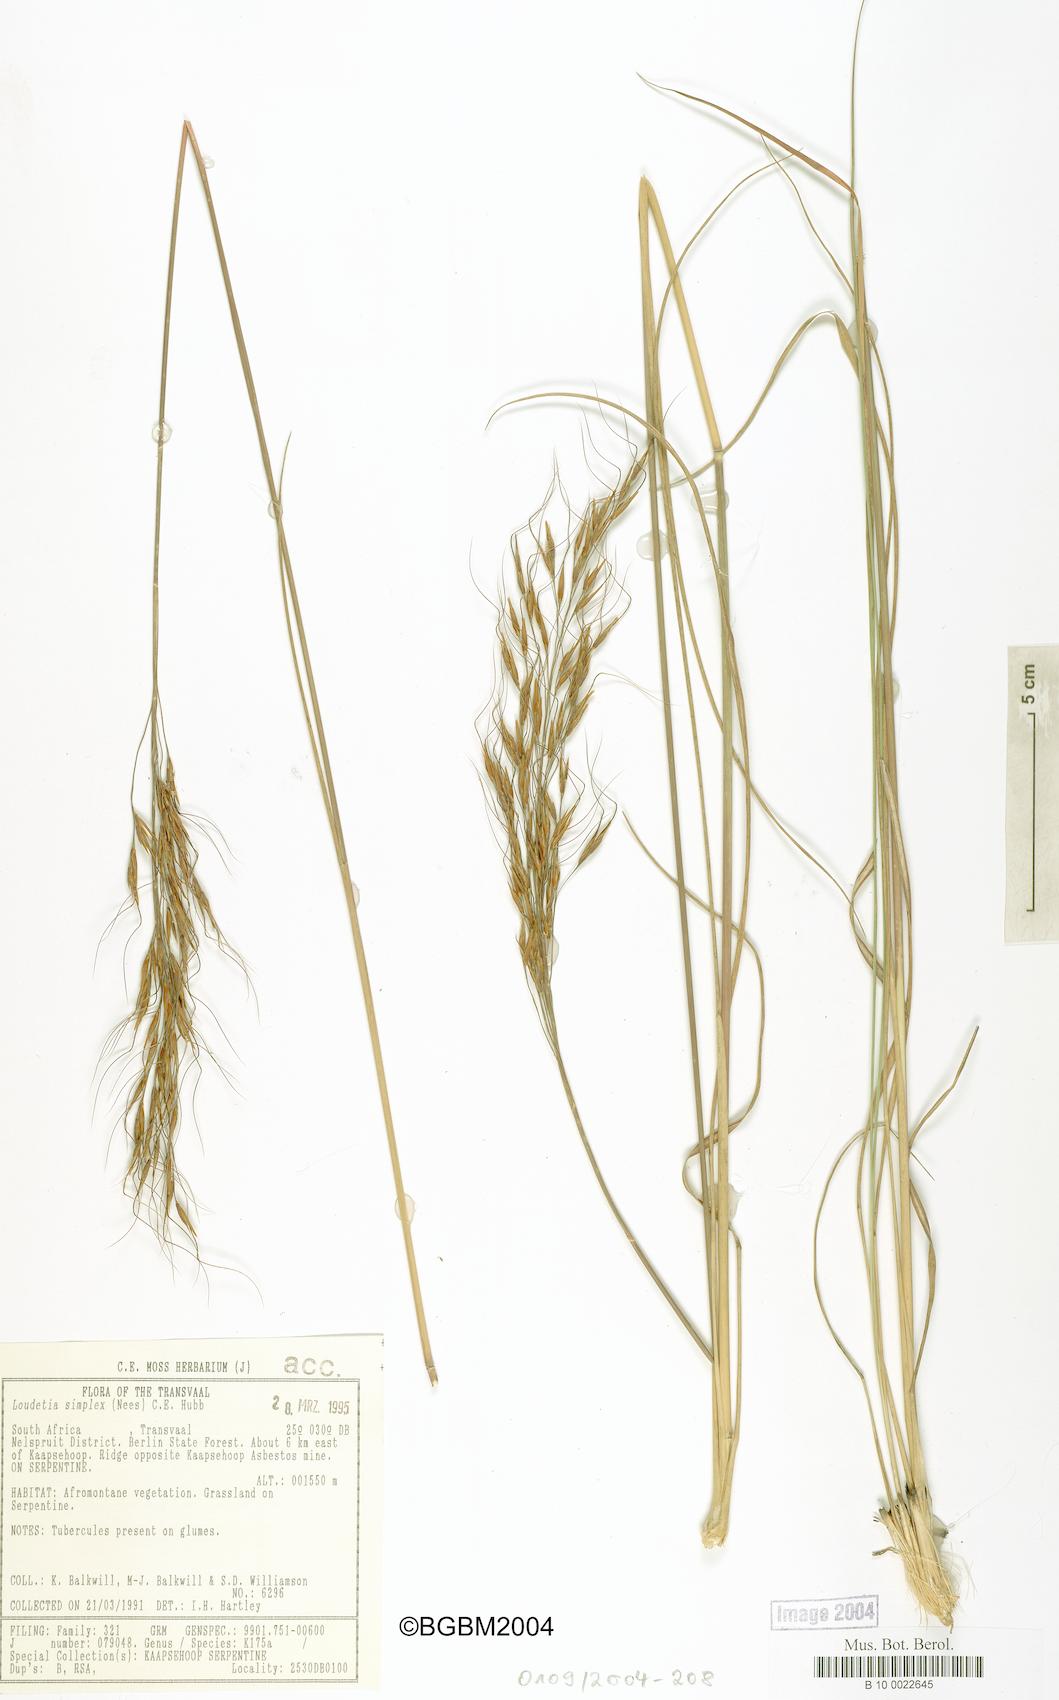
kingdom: Plantae
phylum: Tracheophyta
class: Liliopsida
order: Poales
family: Poaceae
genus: Loudetia
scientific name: Loudetia simplex
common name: Common russet grass
